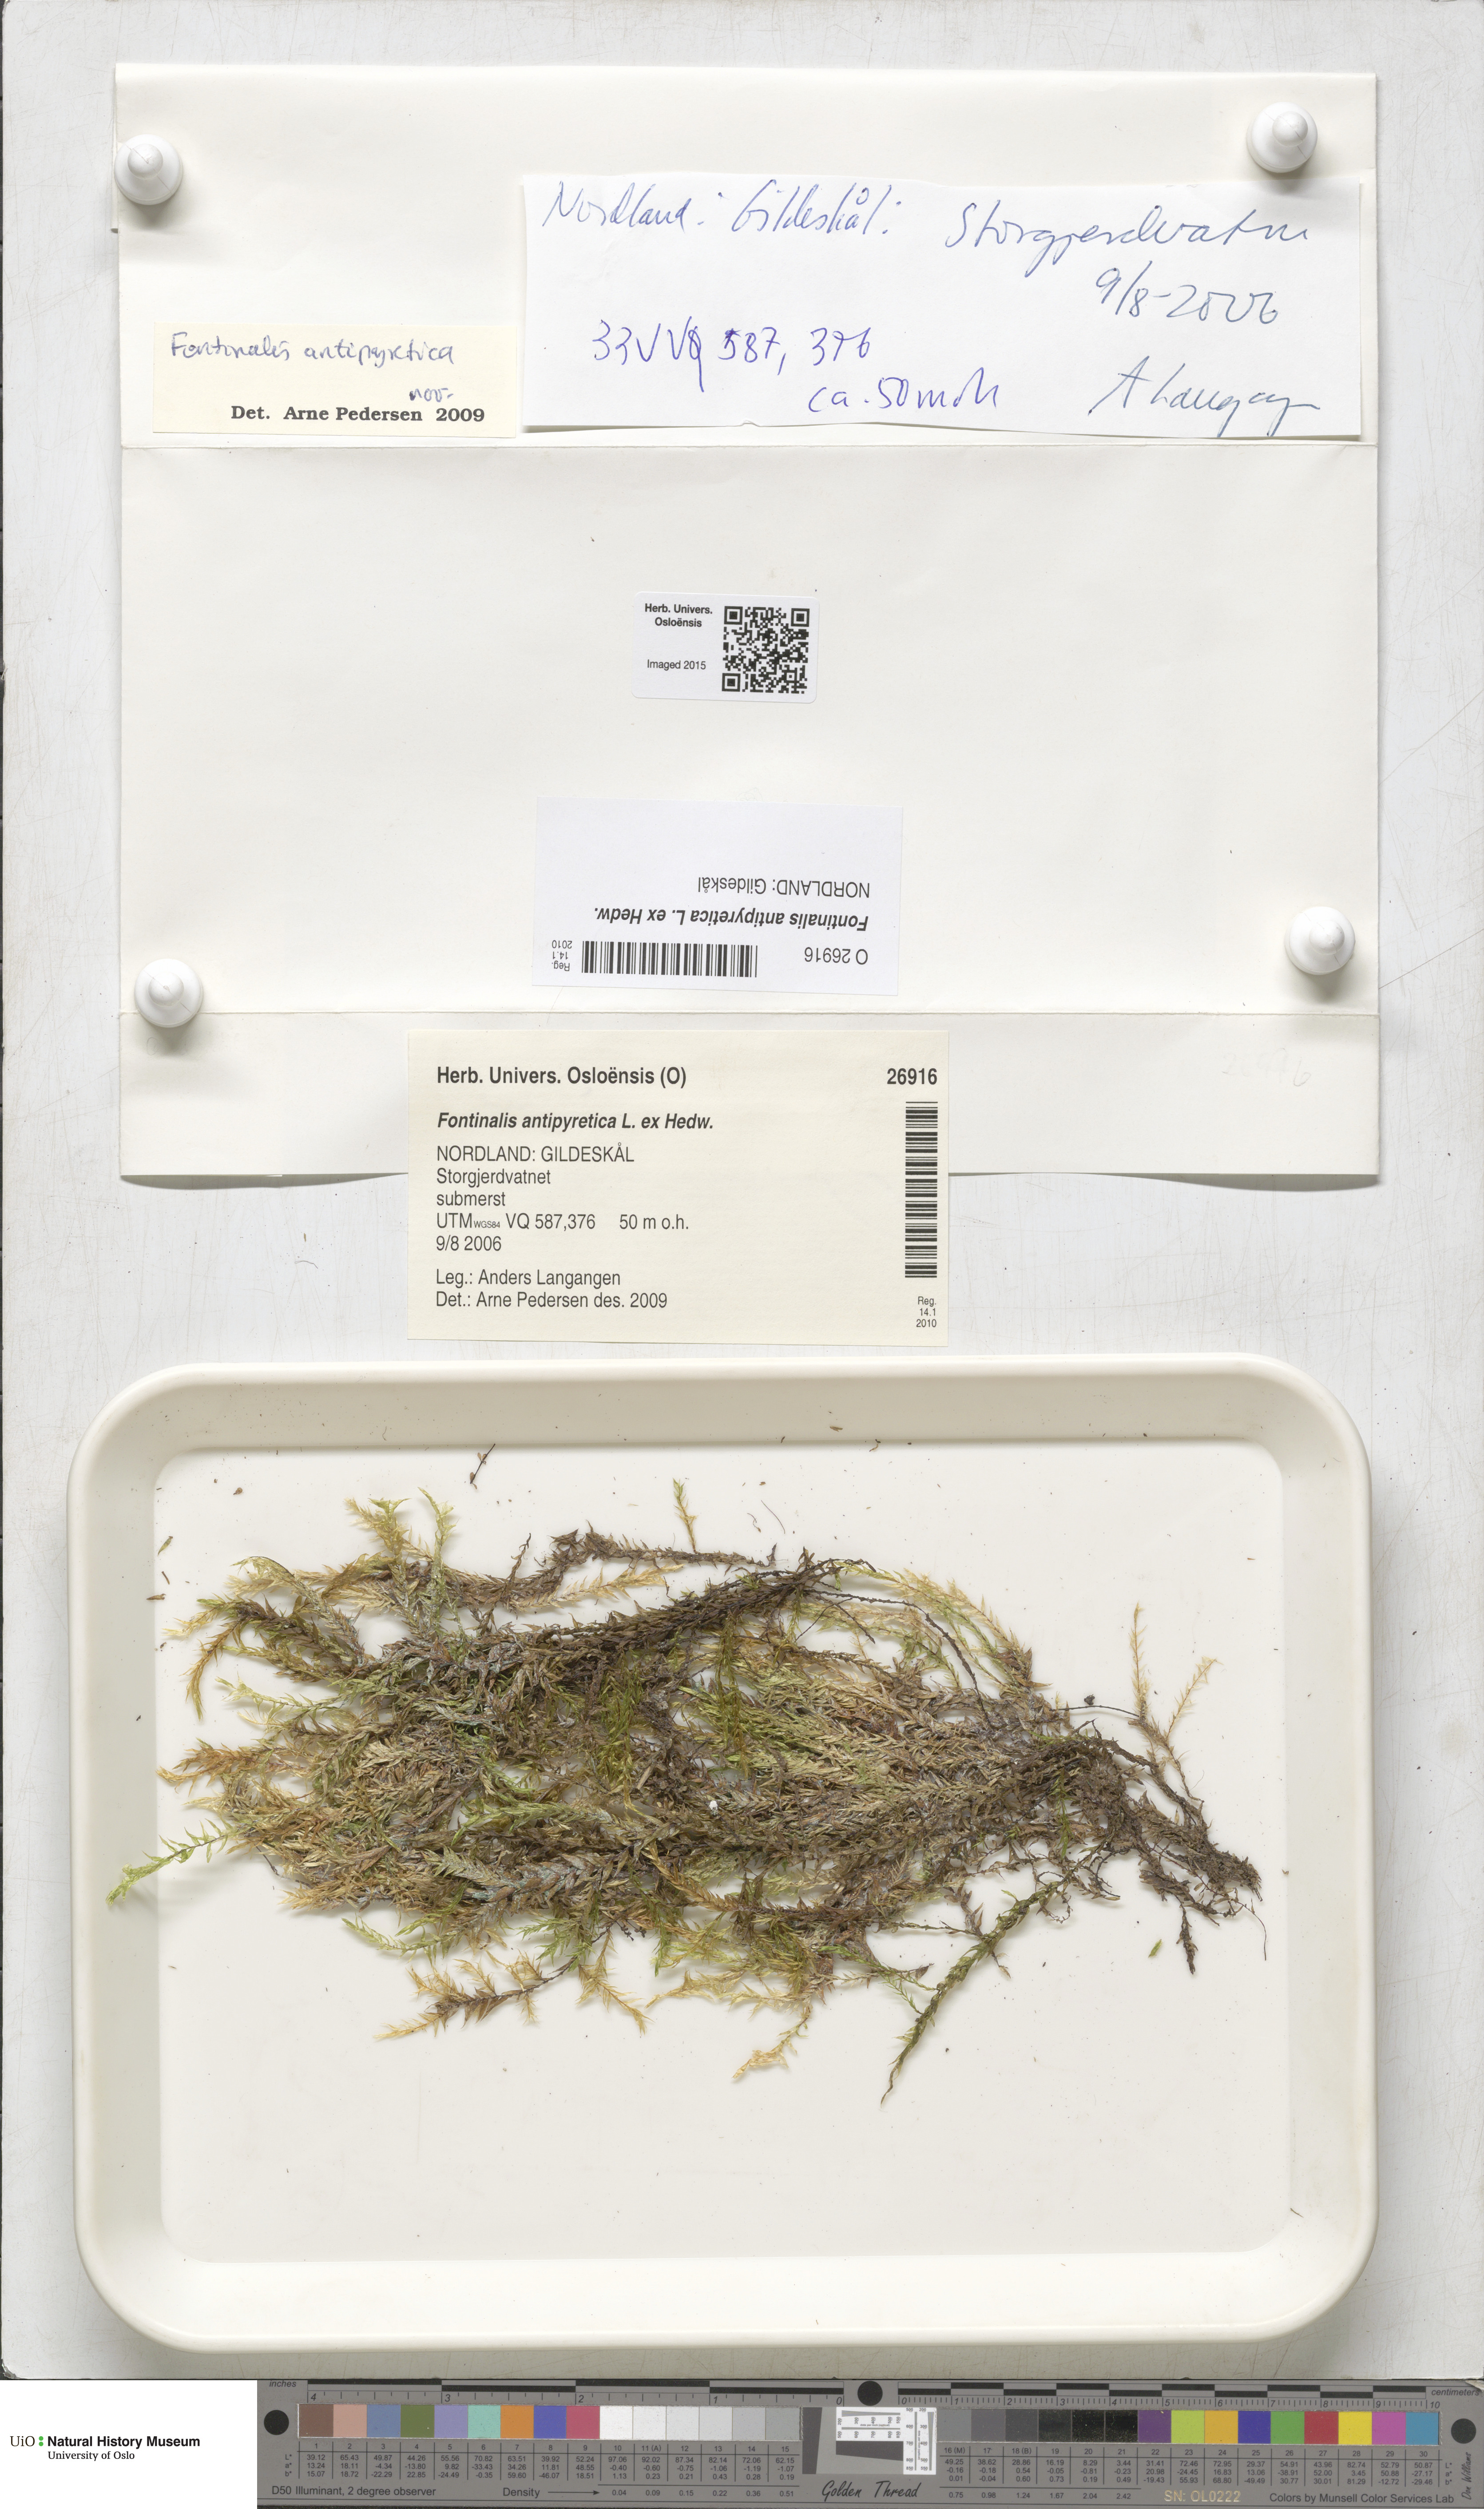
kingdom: Plantae
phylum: Bryophyta
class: Bryopsida
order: Hypnales
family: Fontinalaceae
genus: Fontinalis
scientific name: Fontinalis antipyretica
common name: Greater water-moss
